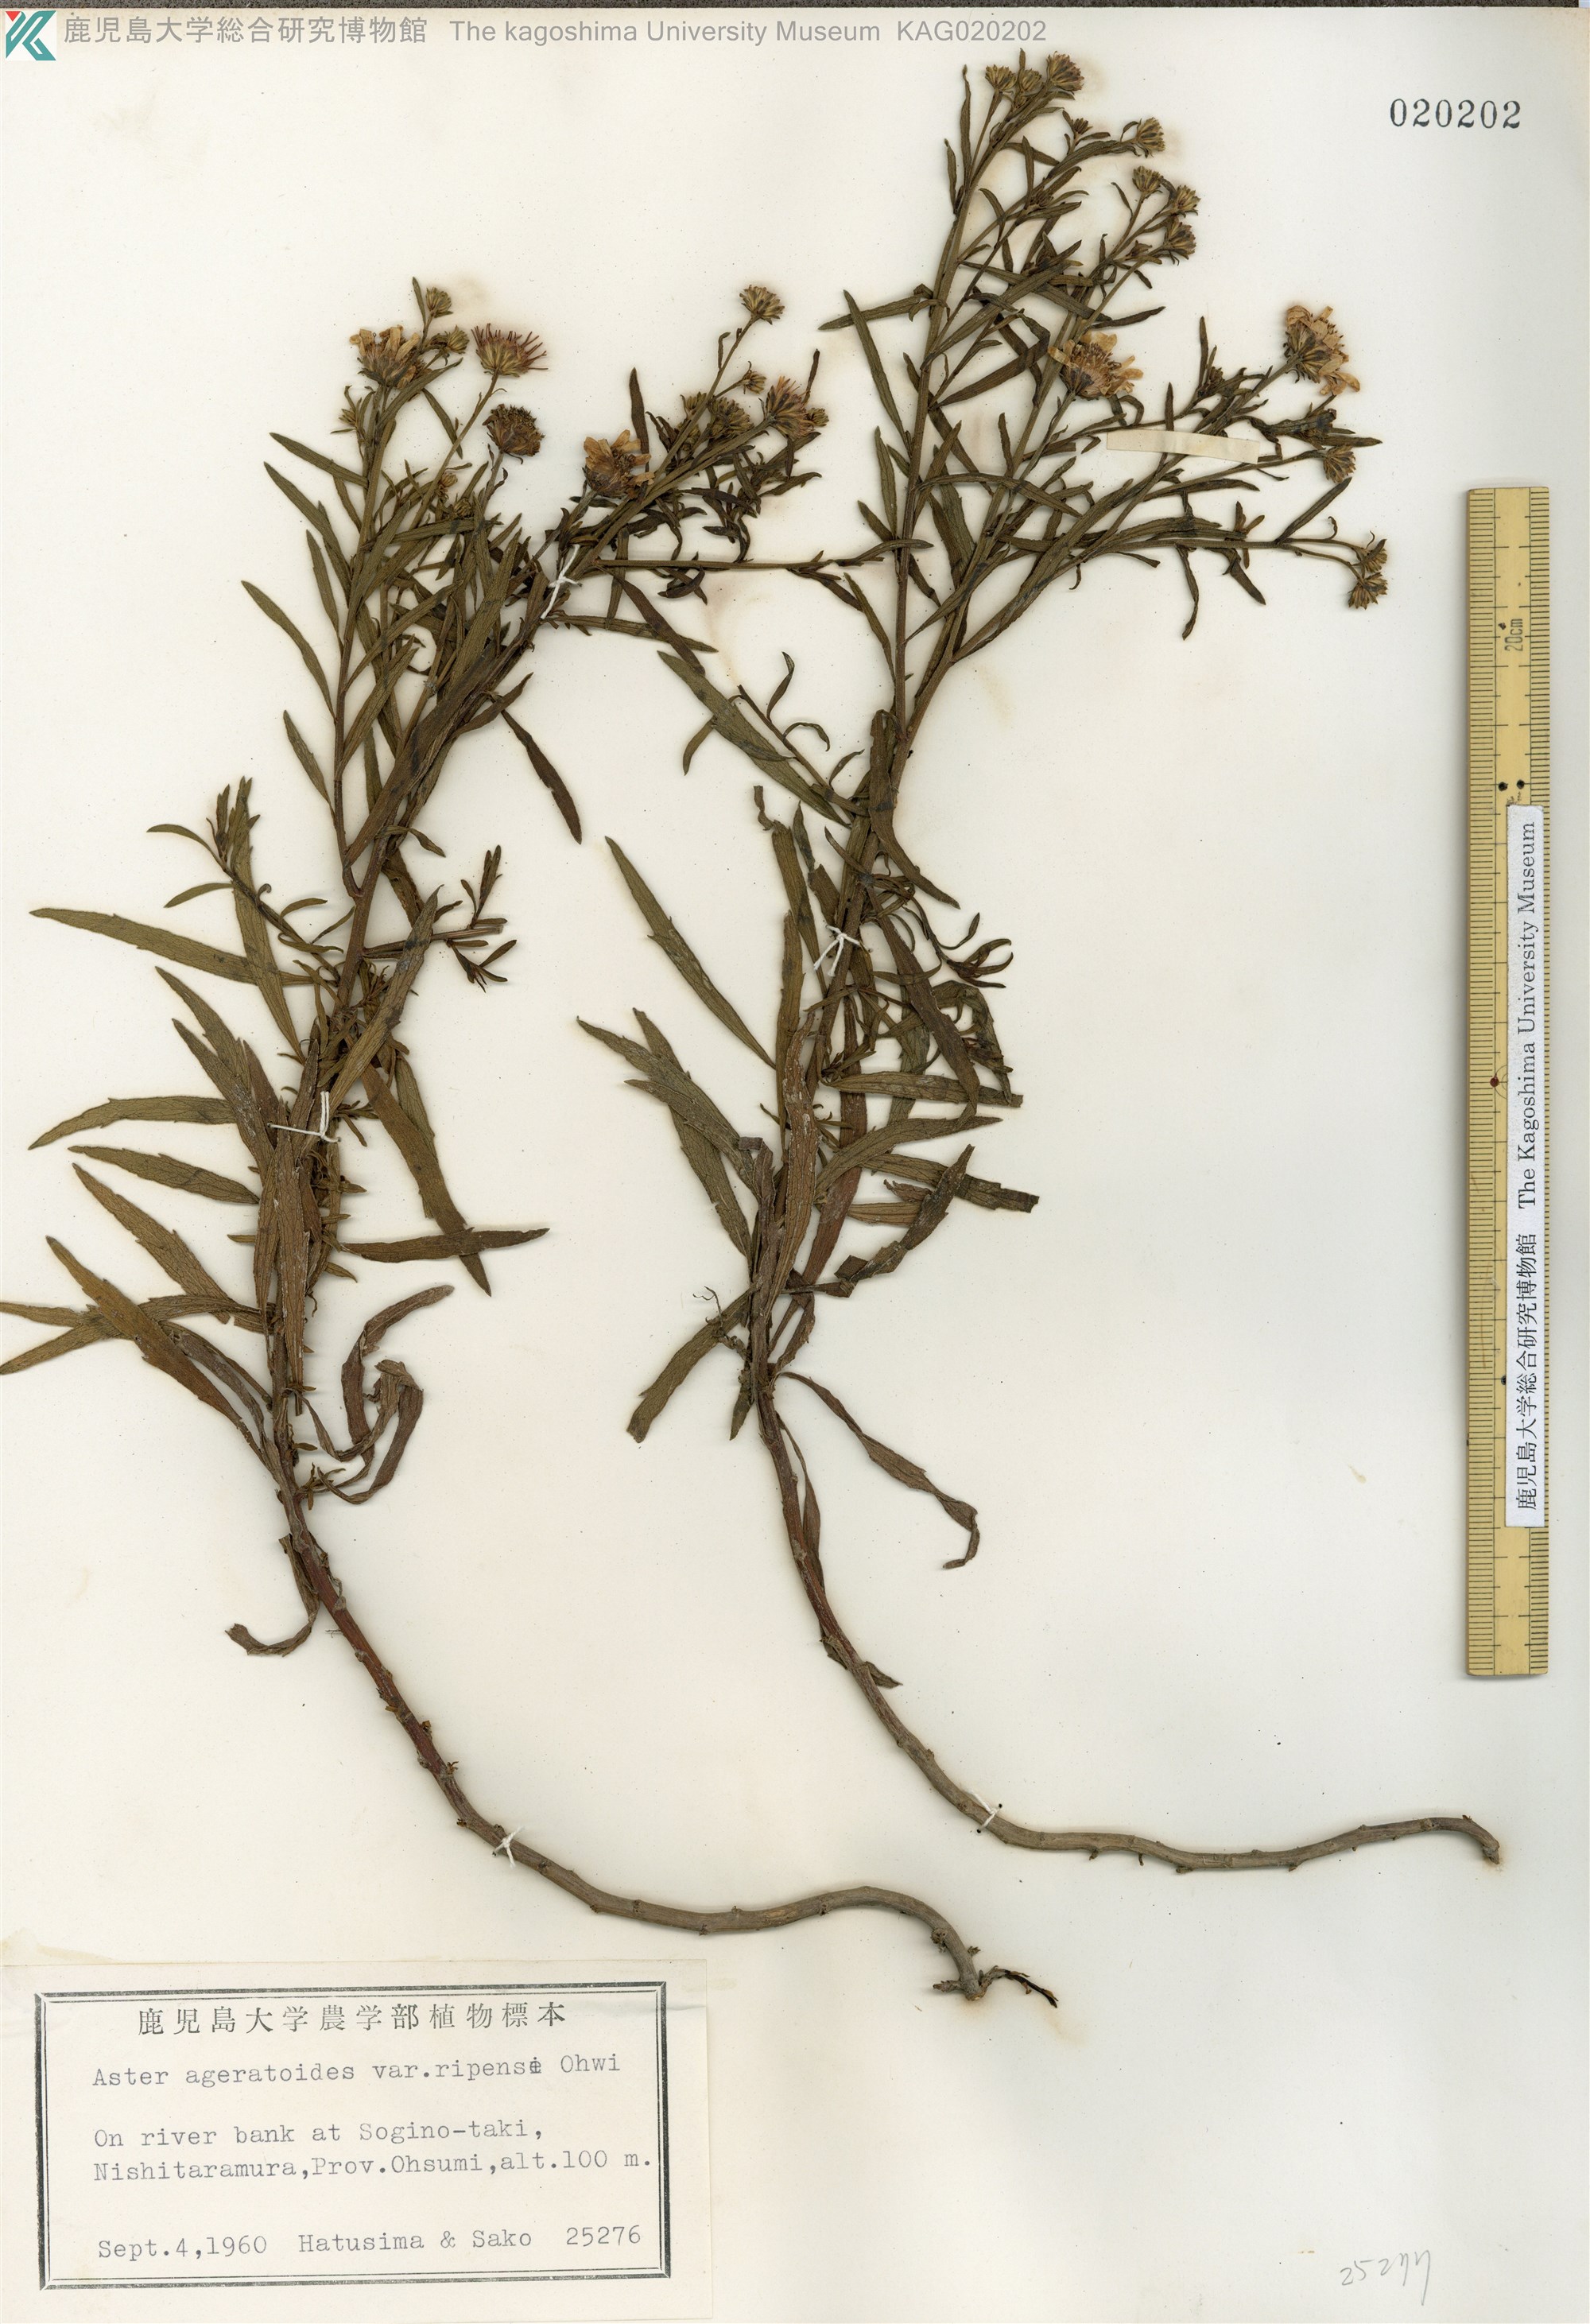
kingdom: Plantae
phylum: Tracheophyta
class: Magnoliopsida
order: Asterales
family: Asteraceae
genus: Aster
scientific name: Aster microcephalus
